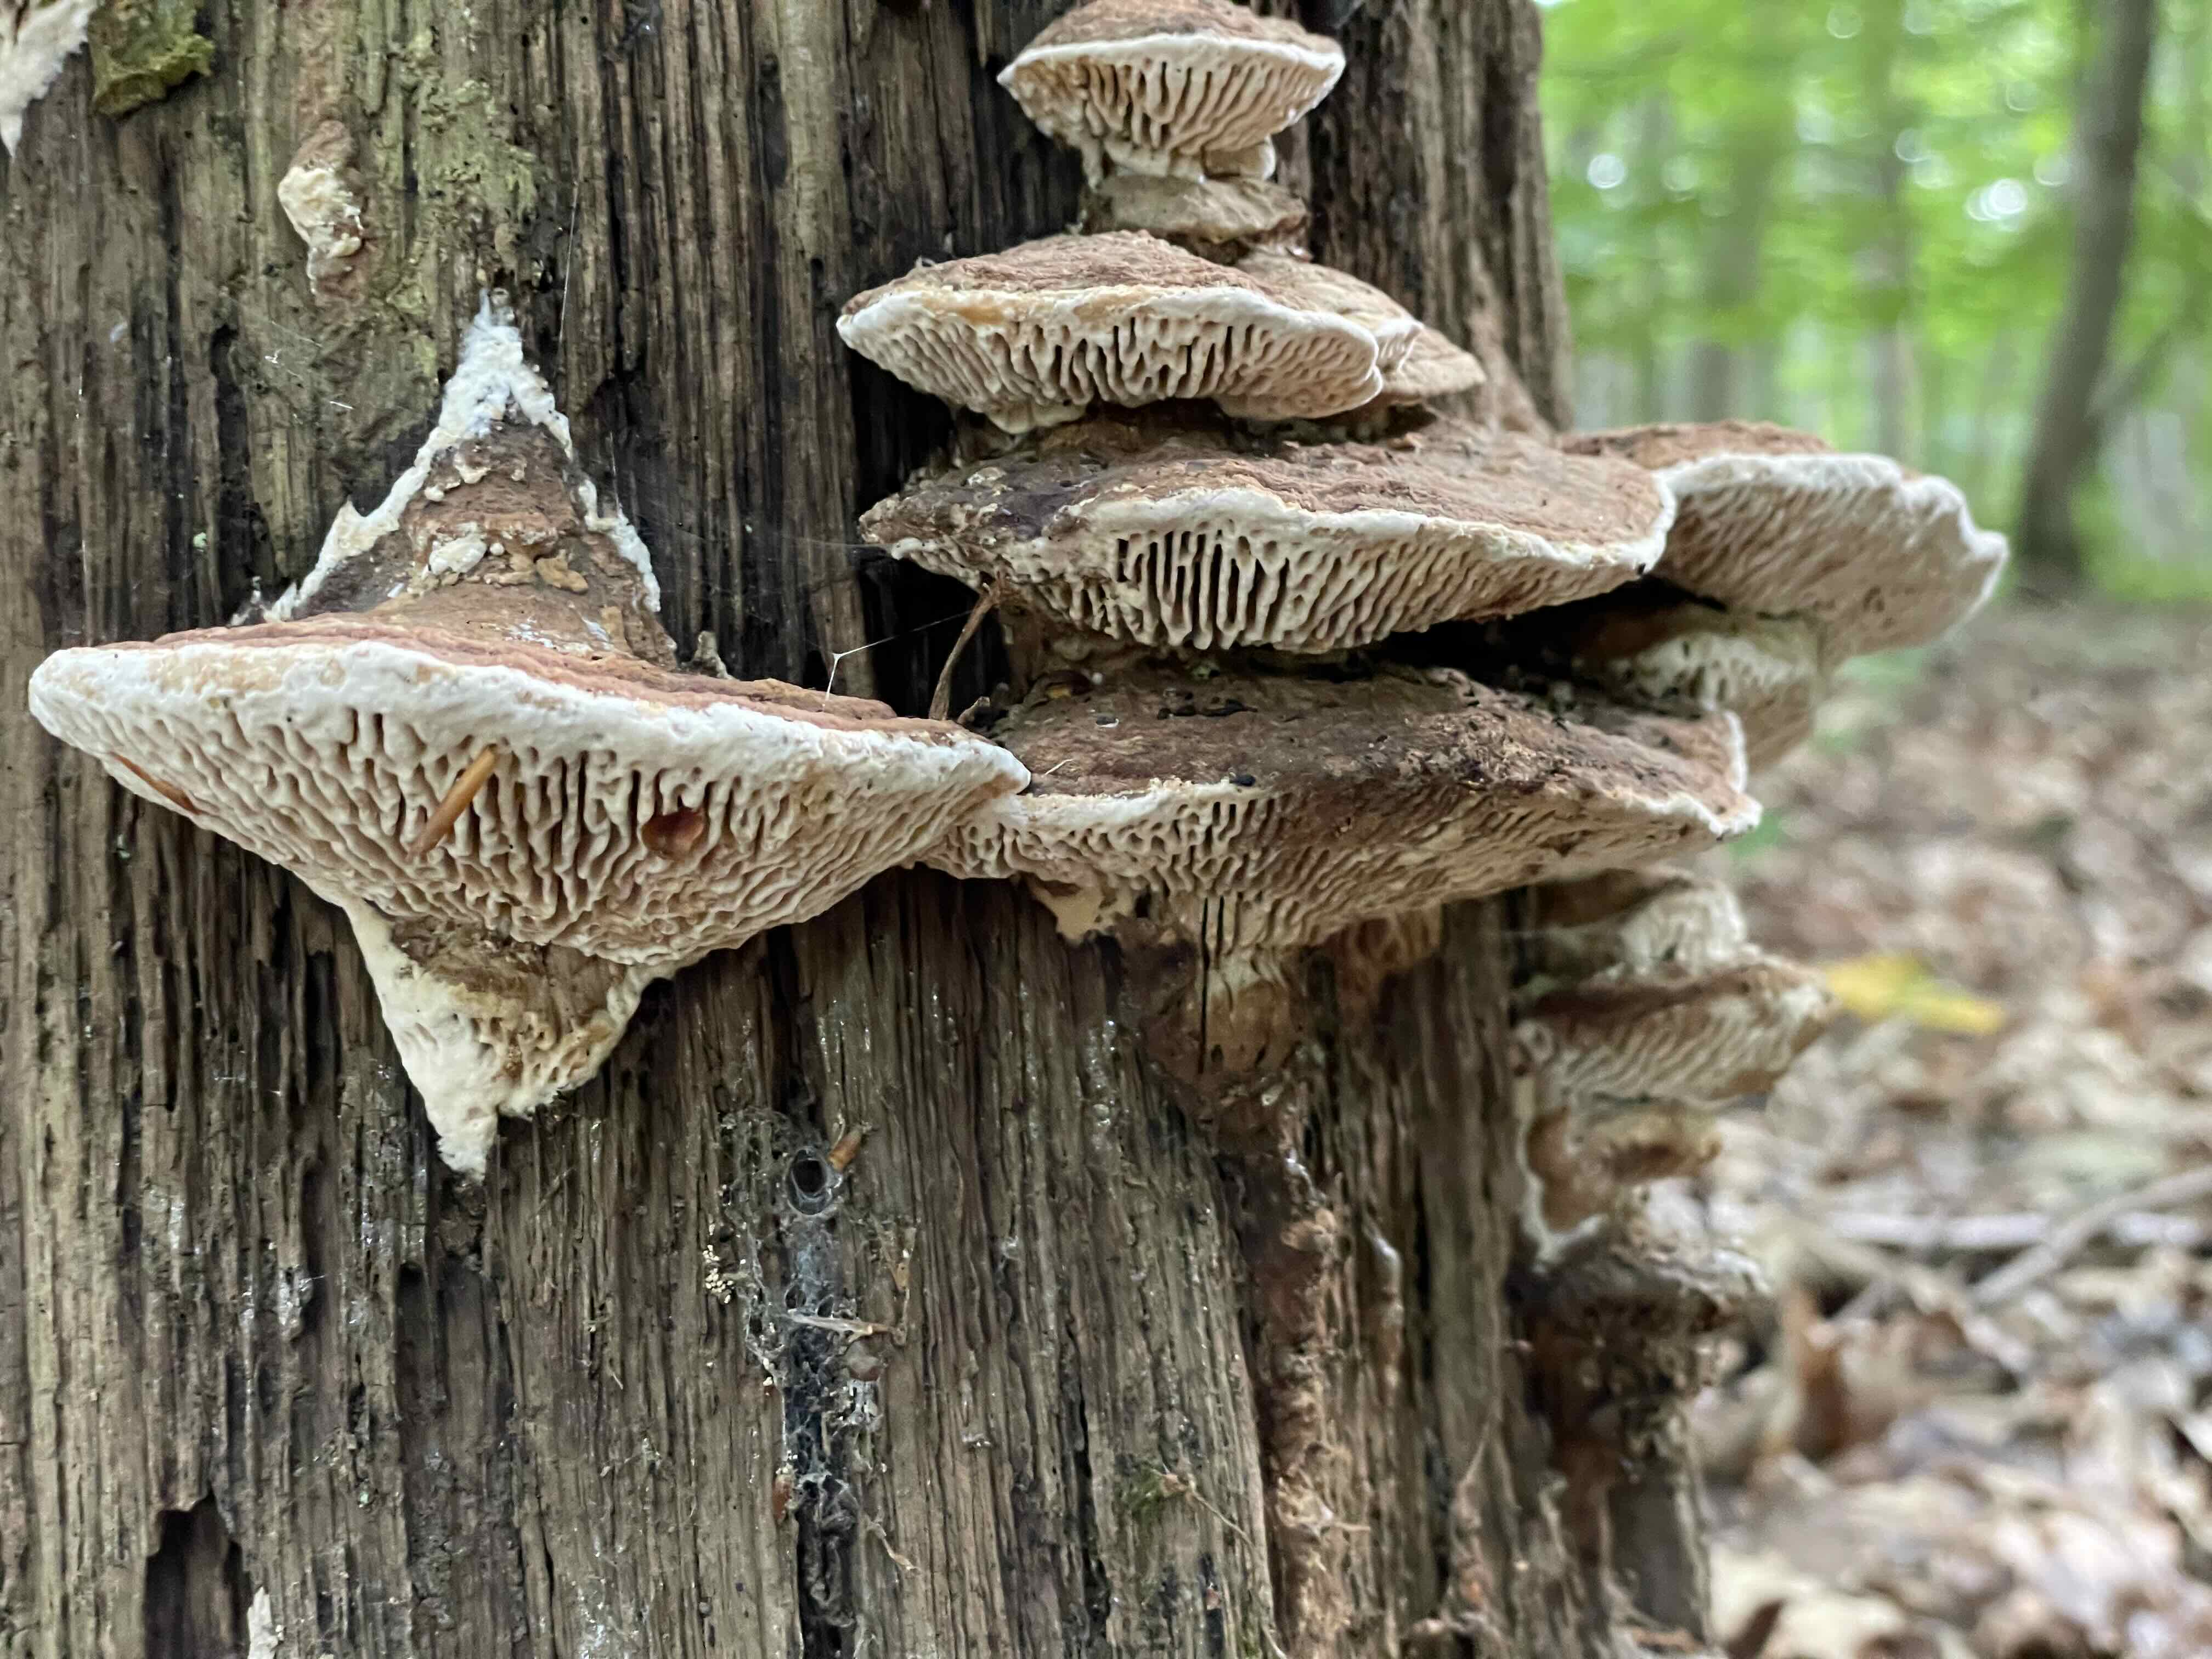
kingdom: Fungi
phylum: Basidiomycota
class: Agaricomycetes
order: Polyporales
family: Fomitopsidaceae
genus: Daedalea
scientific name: Daedalea quercina
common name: ege-labyrintsvamp
